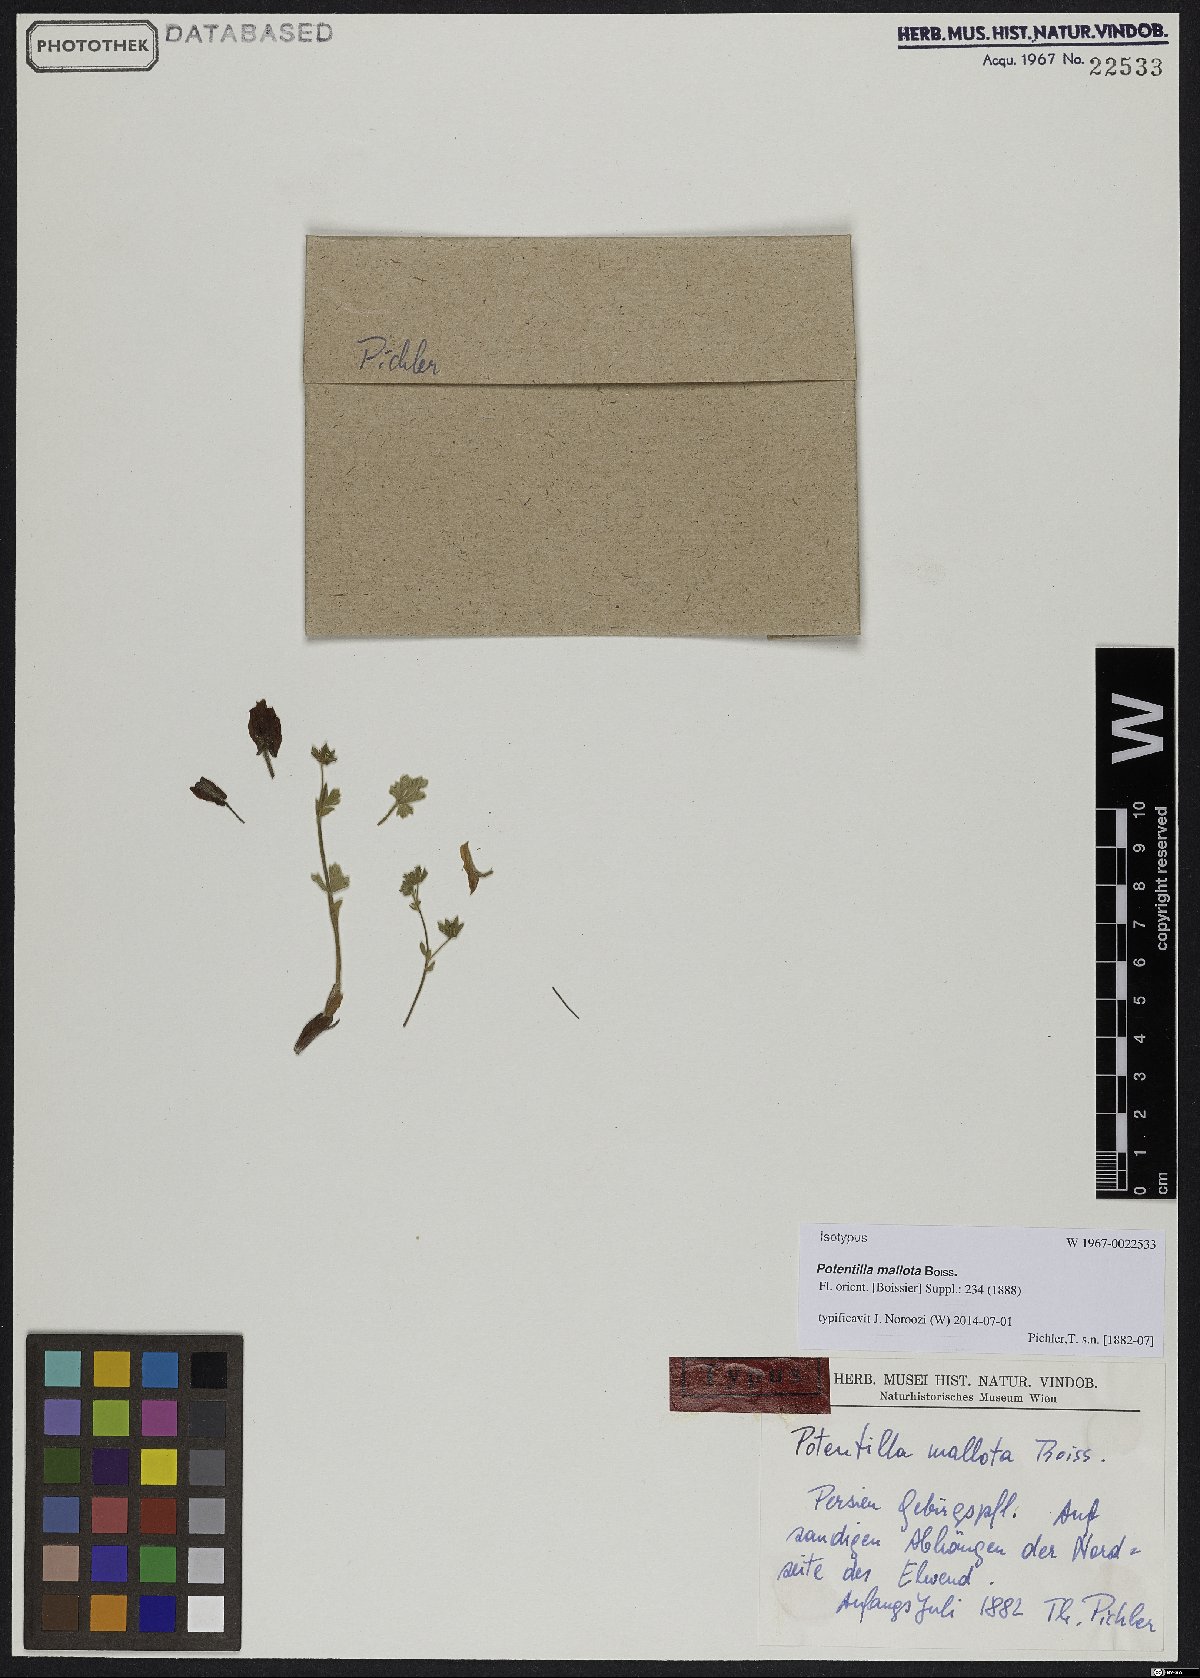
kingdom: Plantae
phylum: Tracheophyta
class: Magnoliopsida
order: Rosales
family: Rosaceae
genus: Potentilla
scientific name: Potentilla mallota
